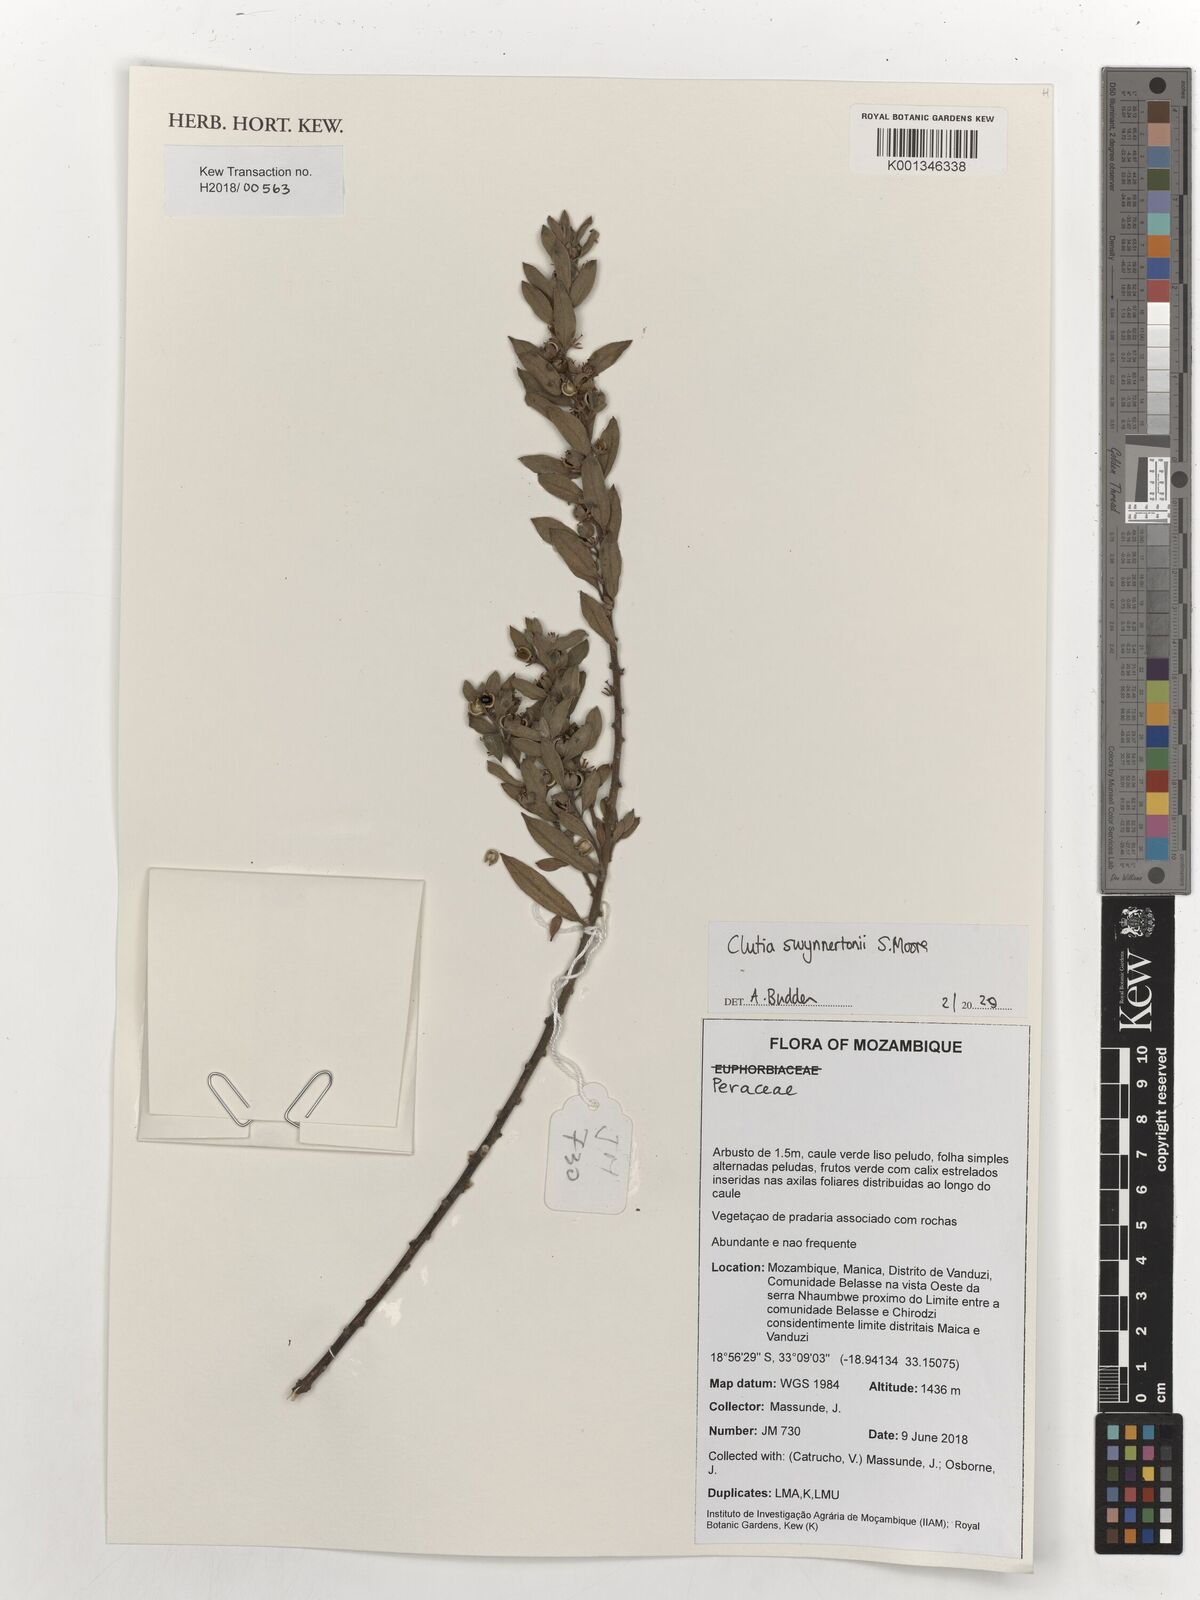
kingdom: Plantae
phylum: Tracheophyta
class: Magnoliopsida
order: Malpighiales
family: Peraceae
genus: Clutia
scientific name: Clutia swynnertonii
